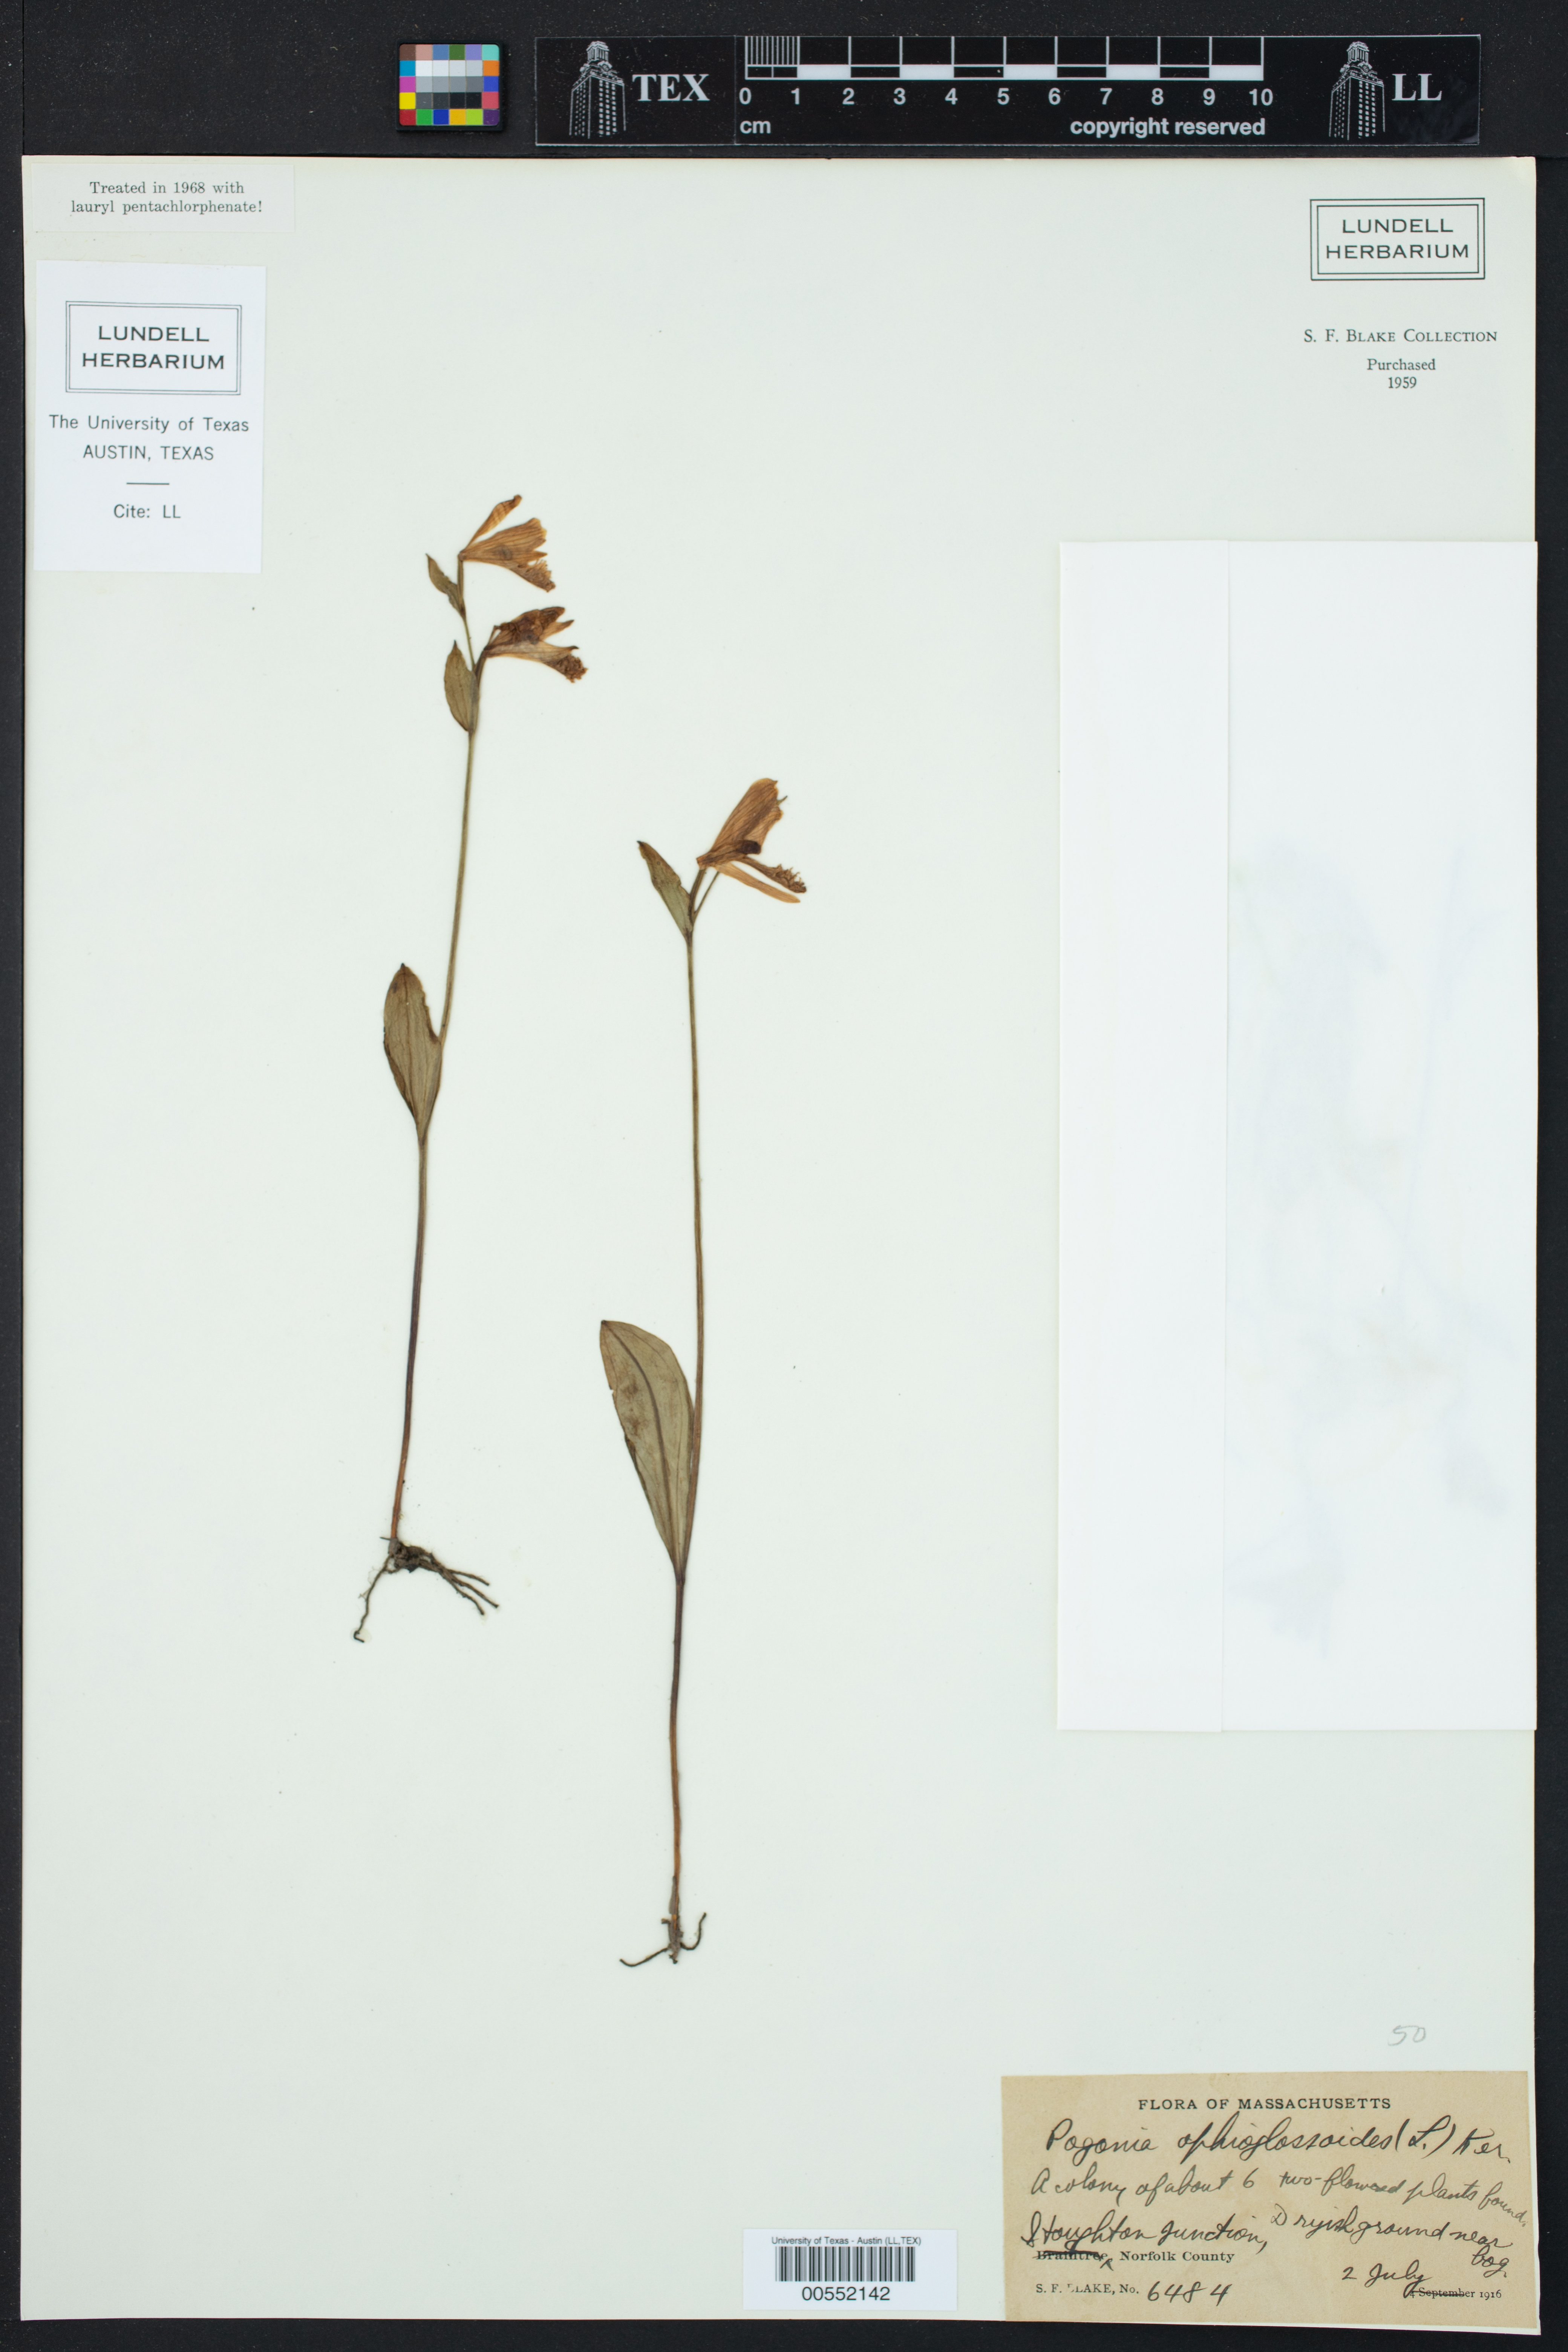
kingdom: Plantae
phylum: Tracheophyta
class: Liliopsida
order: Asparagales
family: Orchidaceae
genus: Pogonia
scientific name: Pogonia ophioglossoides
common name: Rose pogonia
